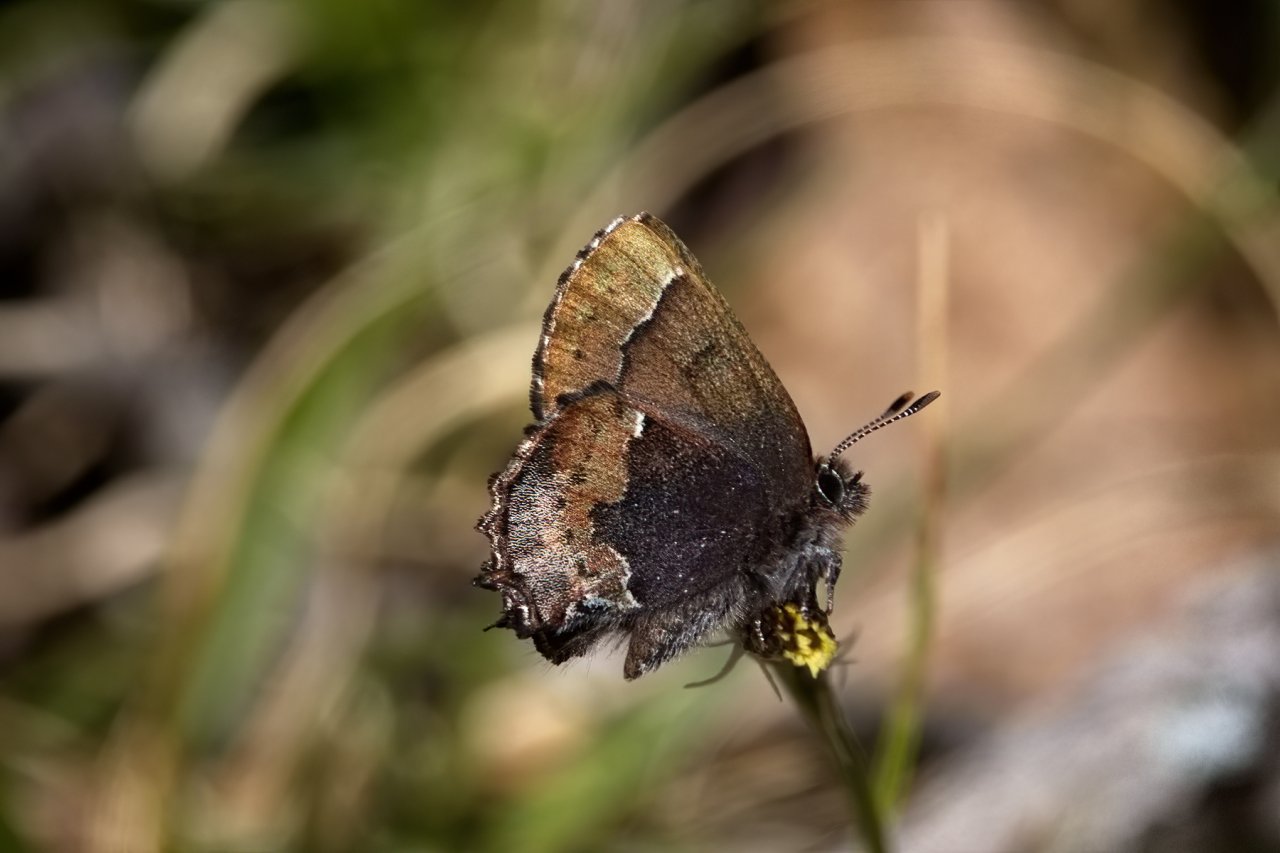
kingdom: Animalia
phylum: Arthropoda
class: Insecta
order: Lepidoptera
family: Lycaenidae
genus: Incisalia
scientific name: Incisalia henrici
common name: Henry's Elfin
